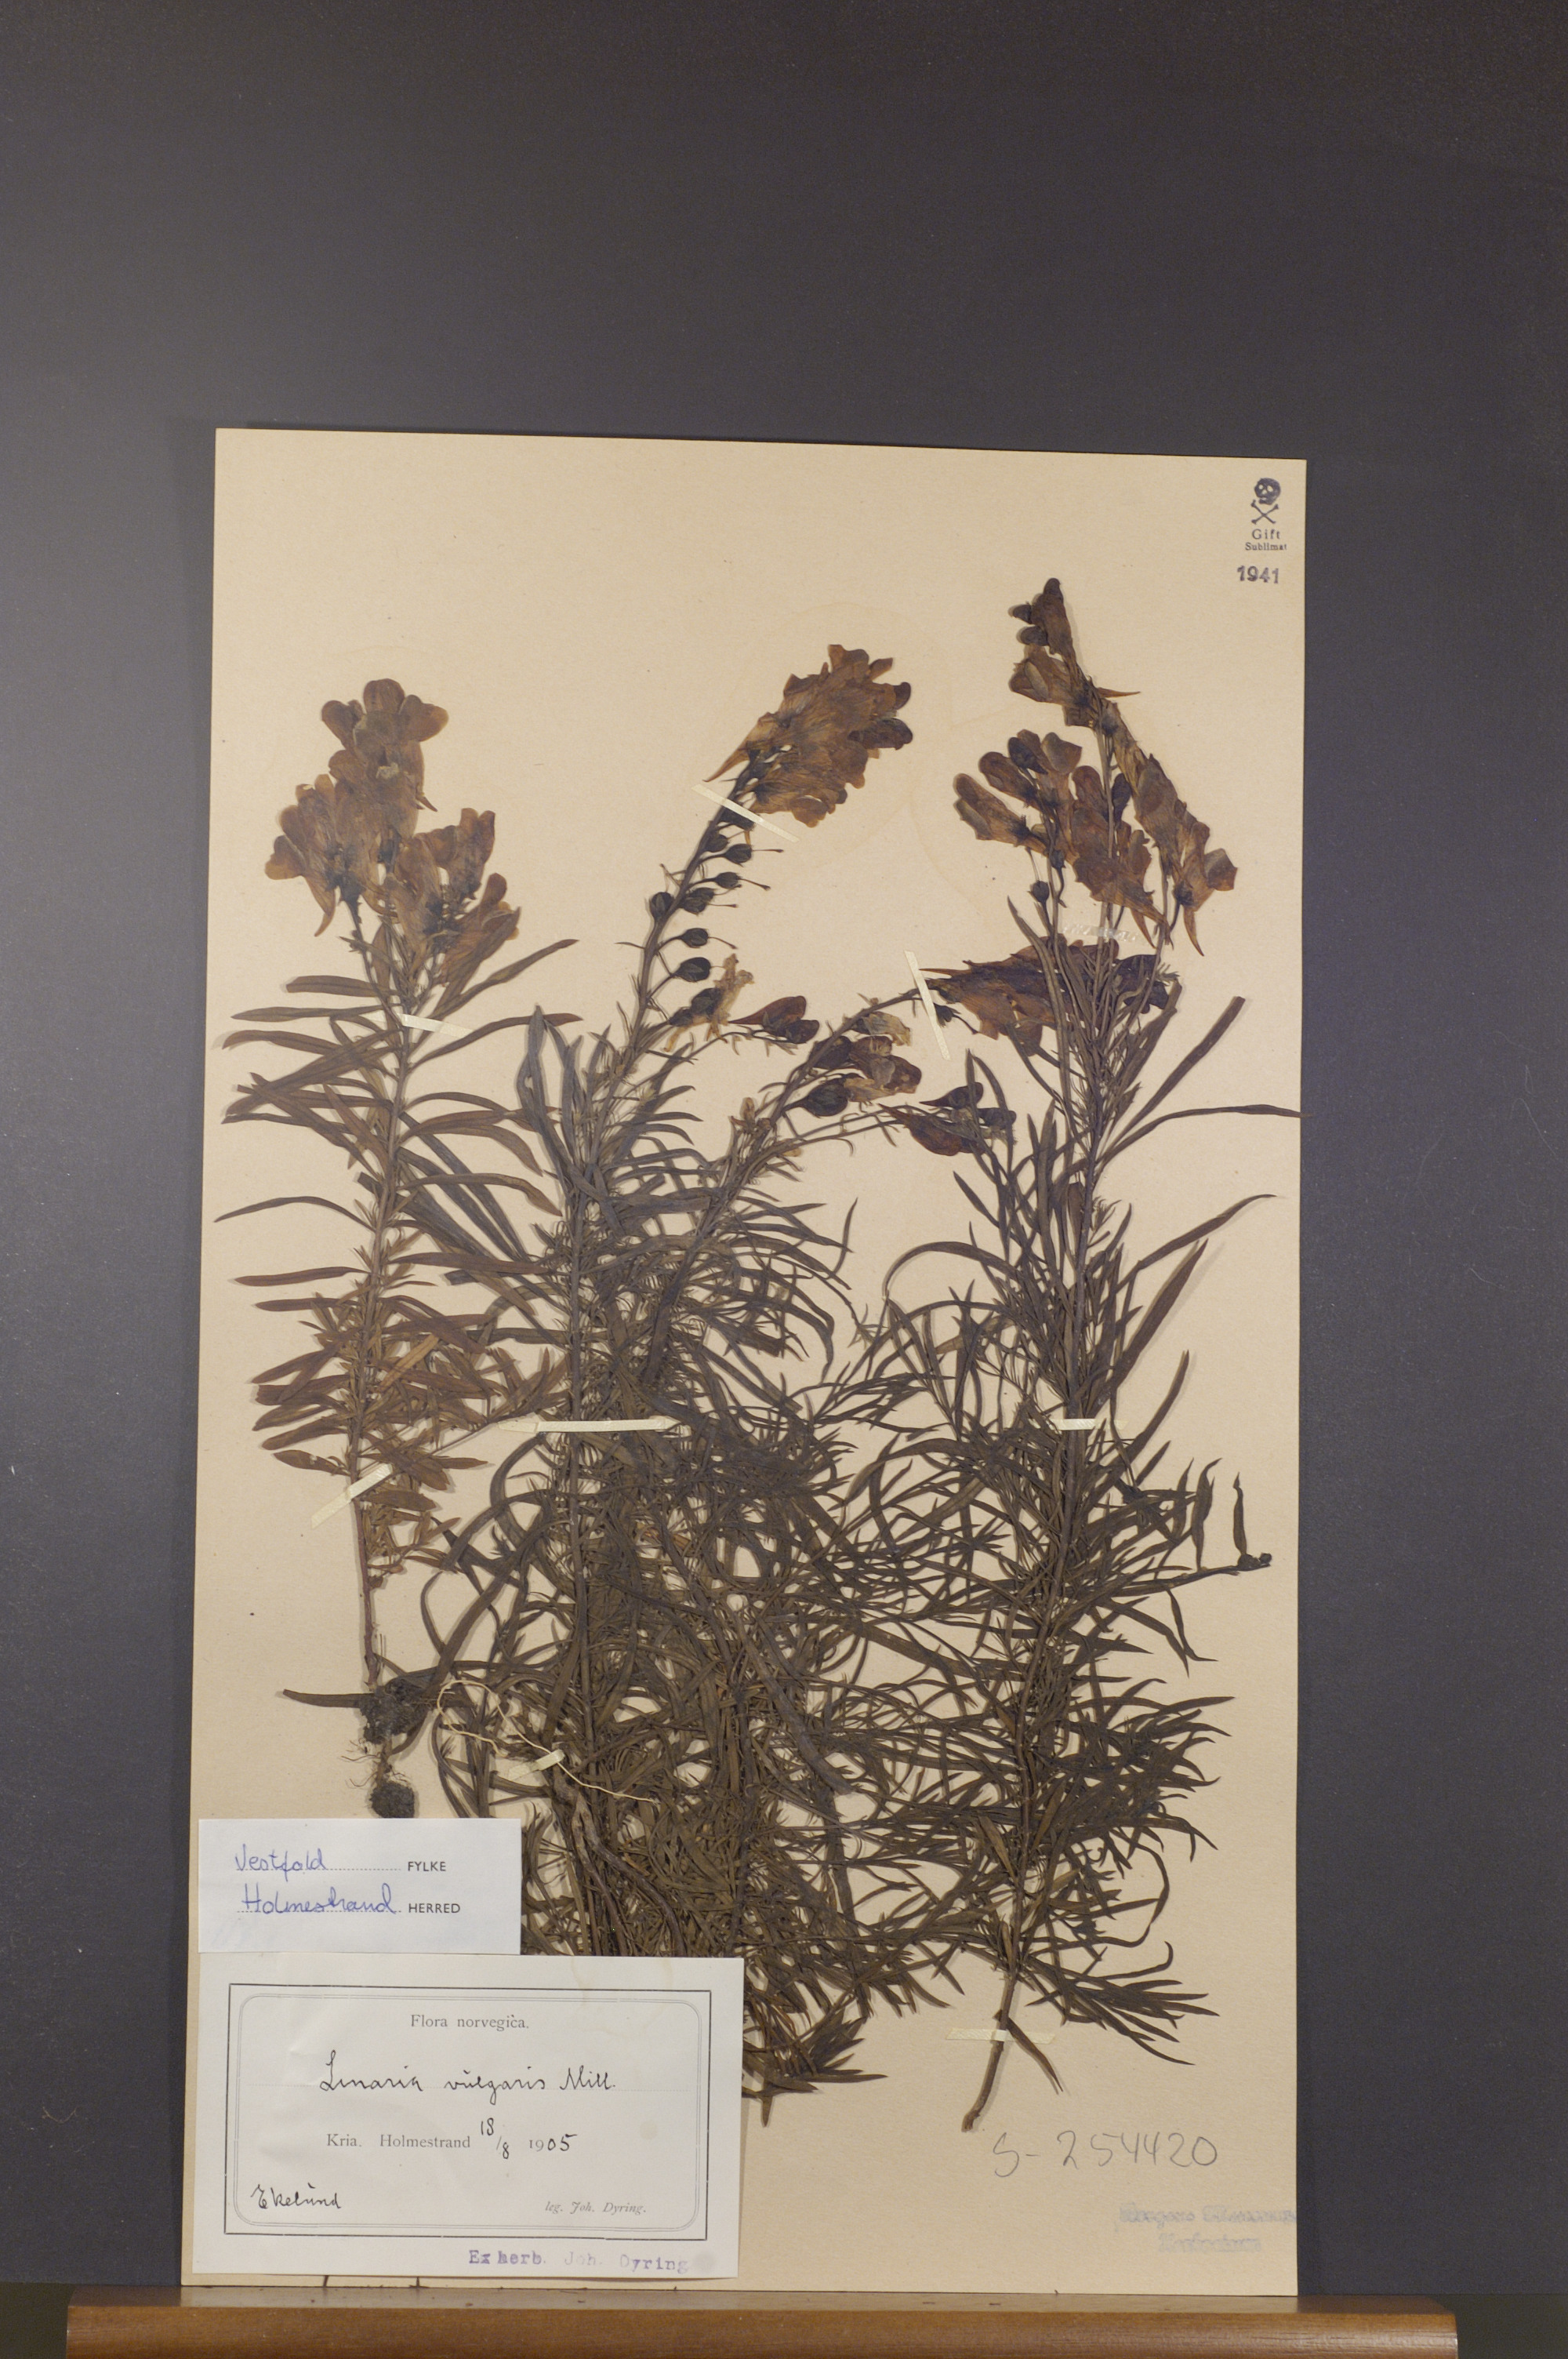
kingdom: Plantae
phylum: Tracheophyta
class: Magnoliopsida
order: Lamiales
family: Plantaginaceae
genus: Linaria
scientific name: Linaria vulgaris
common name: Butter and eggs
